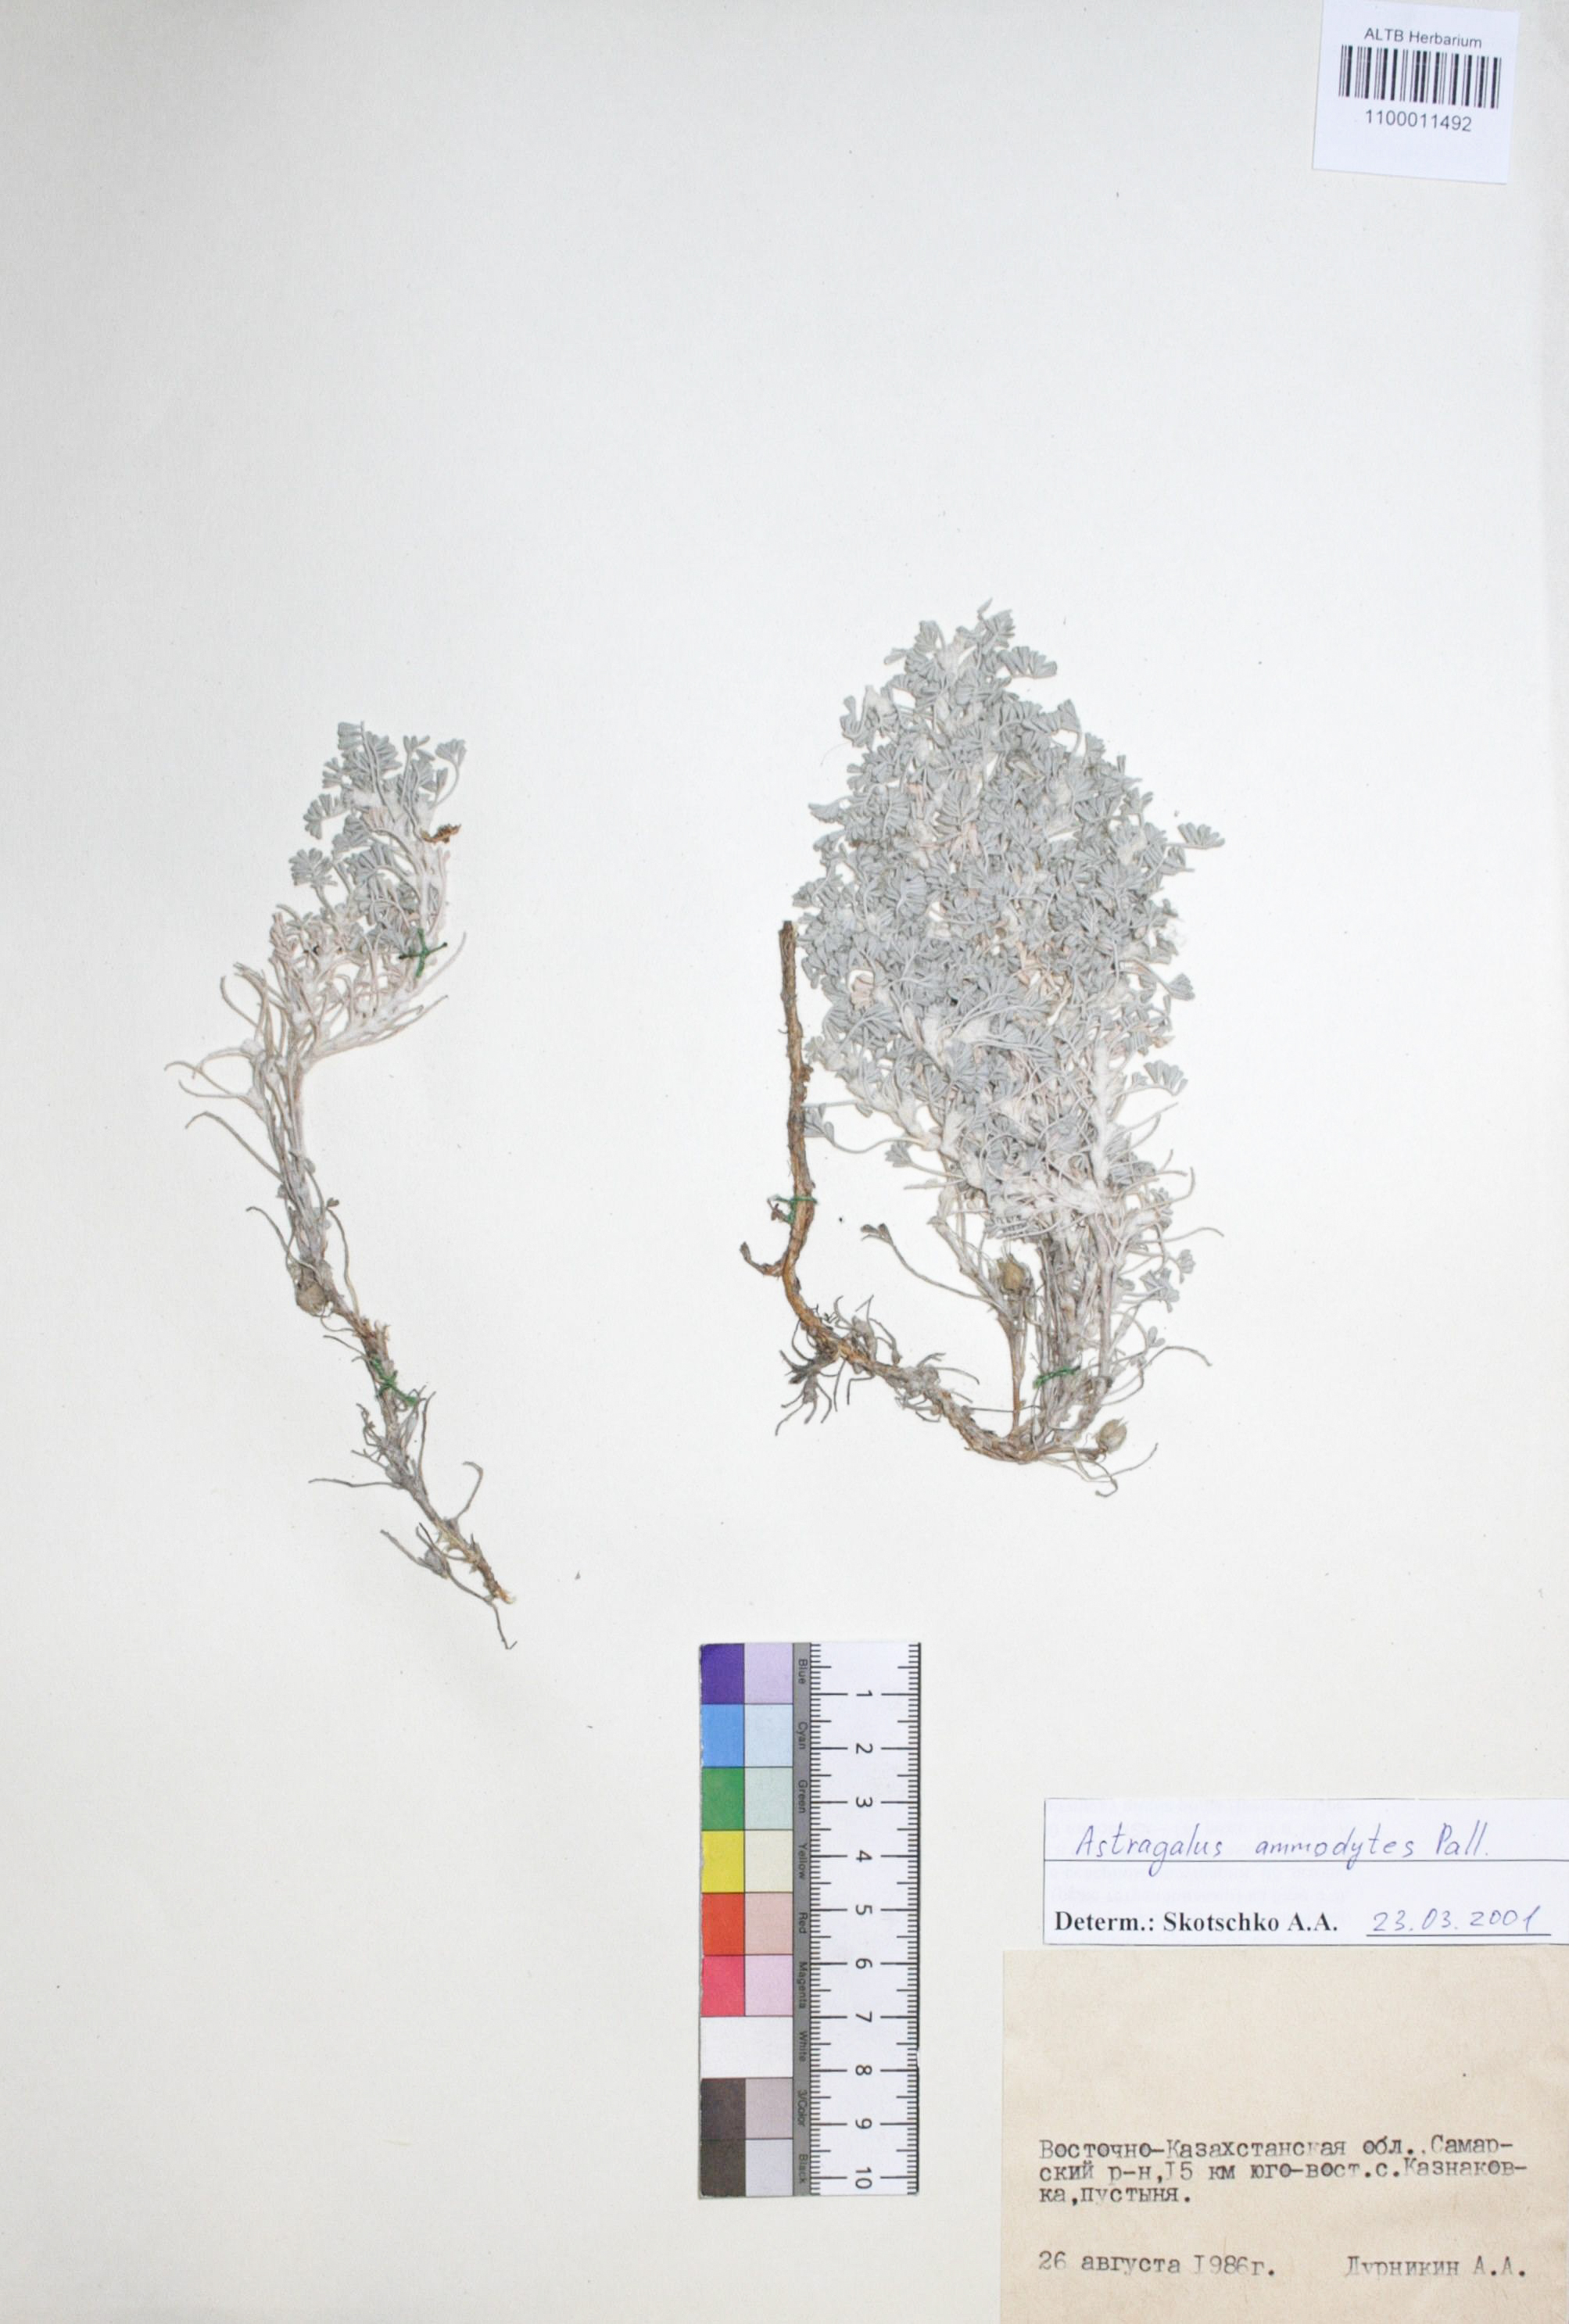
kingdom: Plantae
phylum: Tracheophyta
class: Magnoliopsida
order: Fabales
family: Fabaceae
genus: Astragalus
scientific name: Astragalus ammodytes
